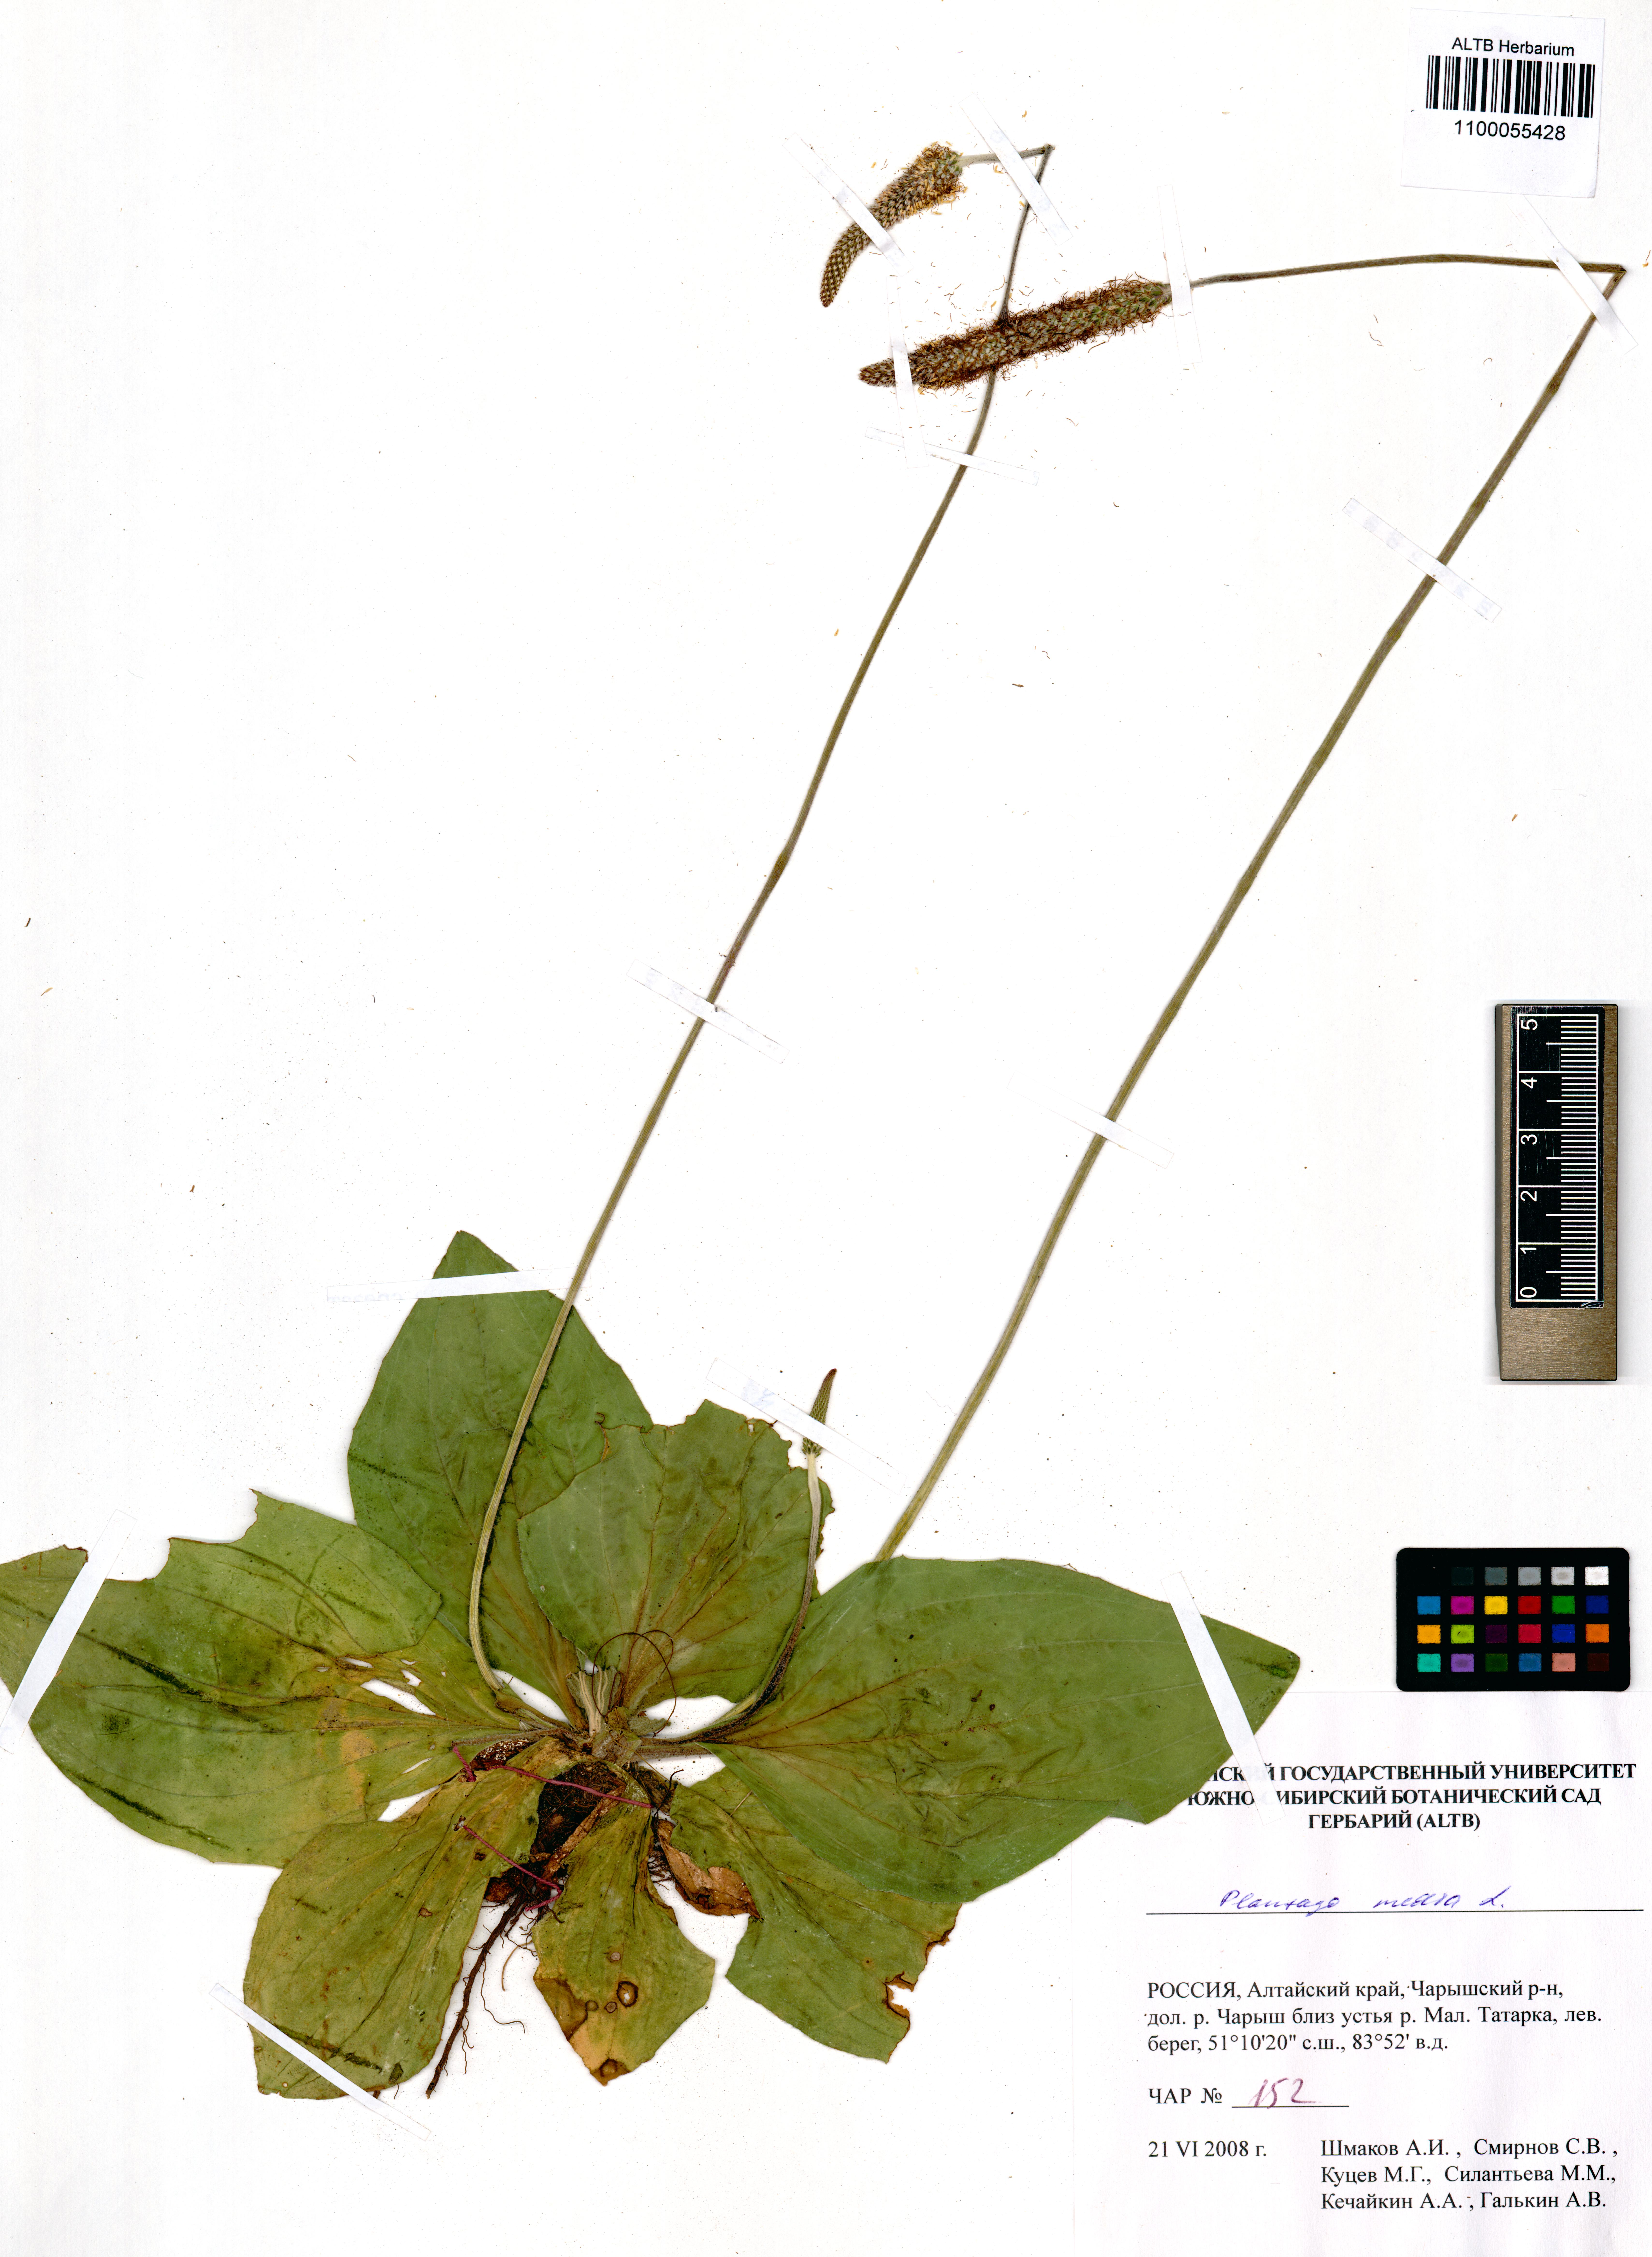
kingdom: Plantae
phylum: Tracheophyta
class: Magnoliopsida
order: Lamiales
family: Plantaginaceae
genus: Plantago
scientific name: Plantago media
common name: Hoary plantain
